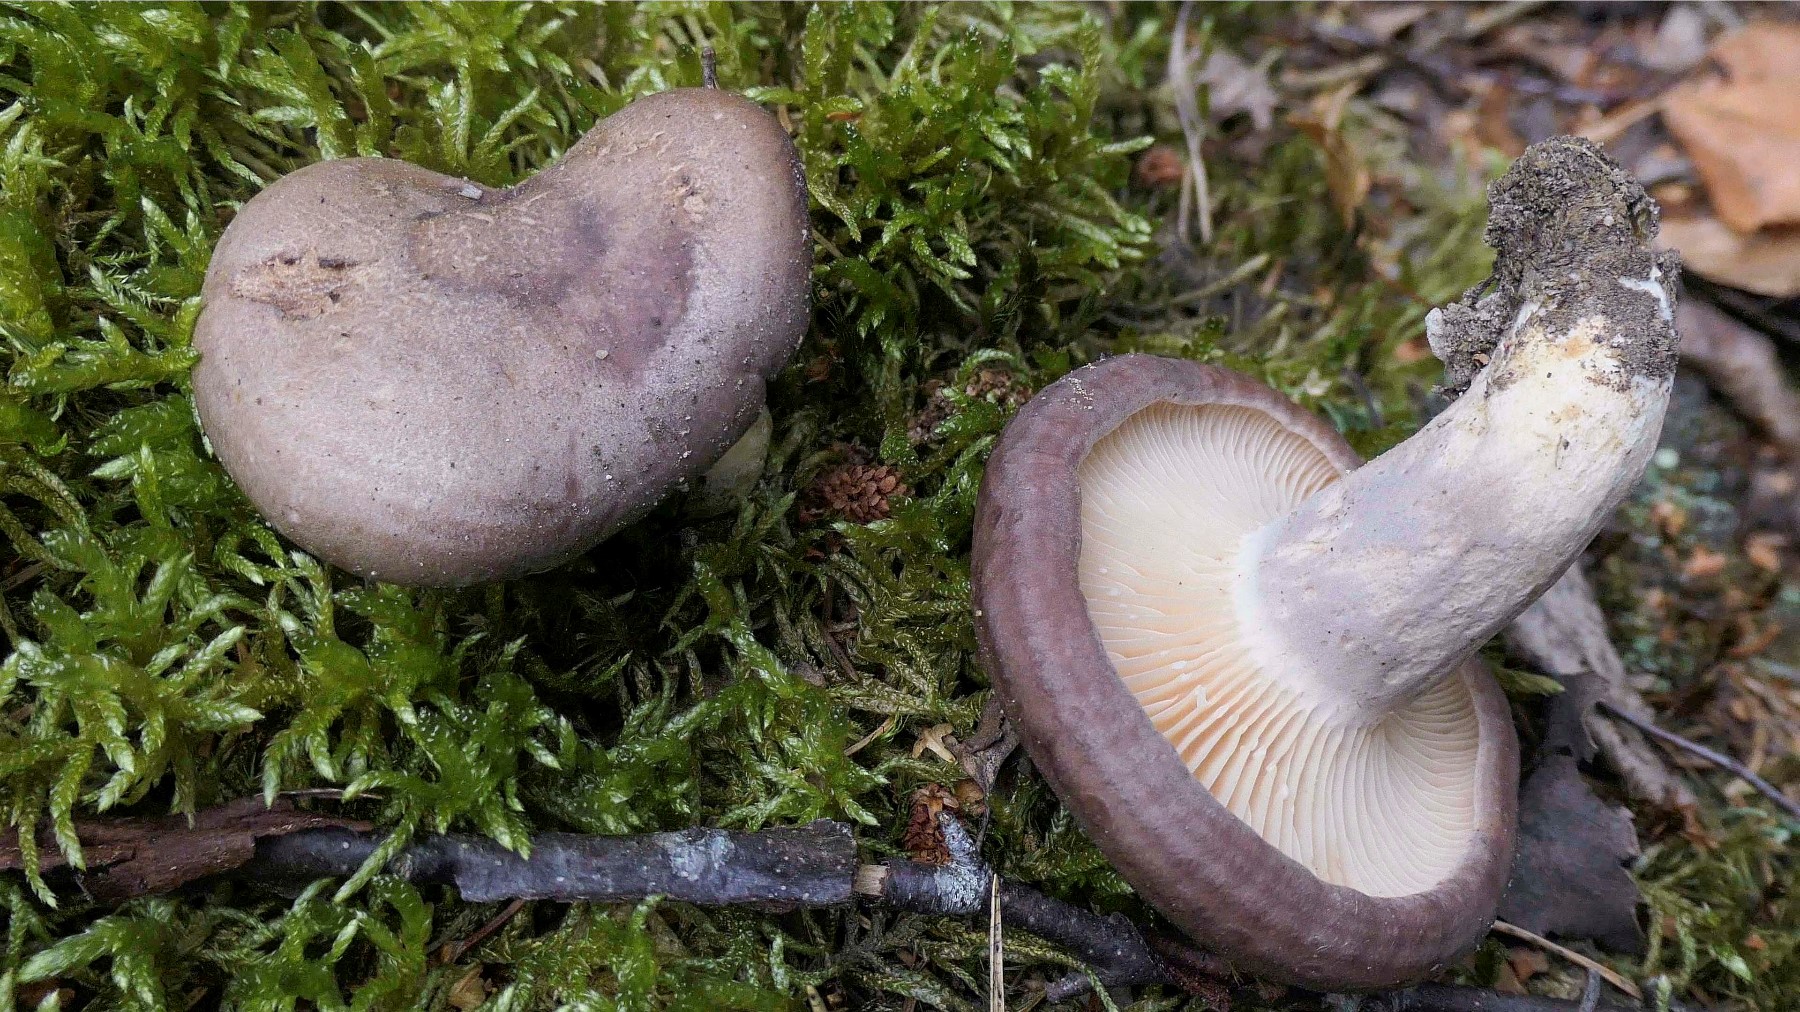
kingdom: Fungi
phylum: Basidiomycota
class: Agaricomycetes
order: Russulales
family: Russulaceae
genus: Lactarius
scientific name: Lactarius flexuosus
